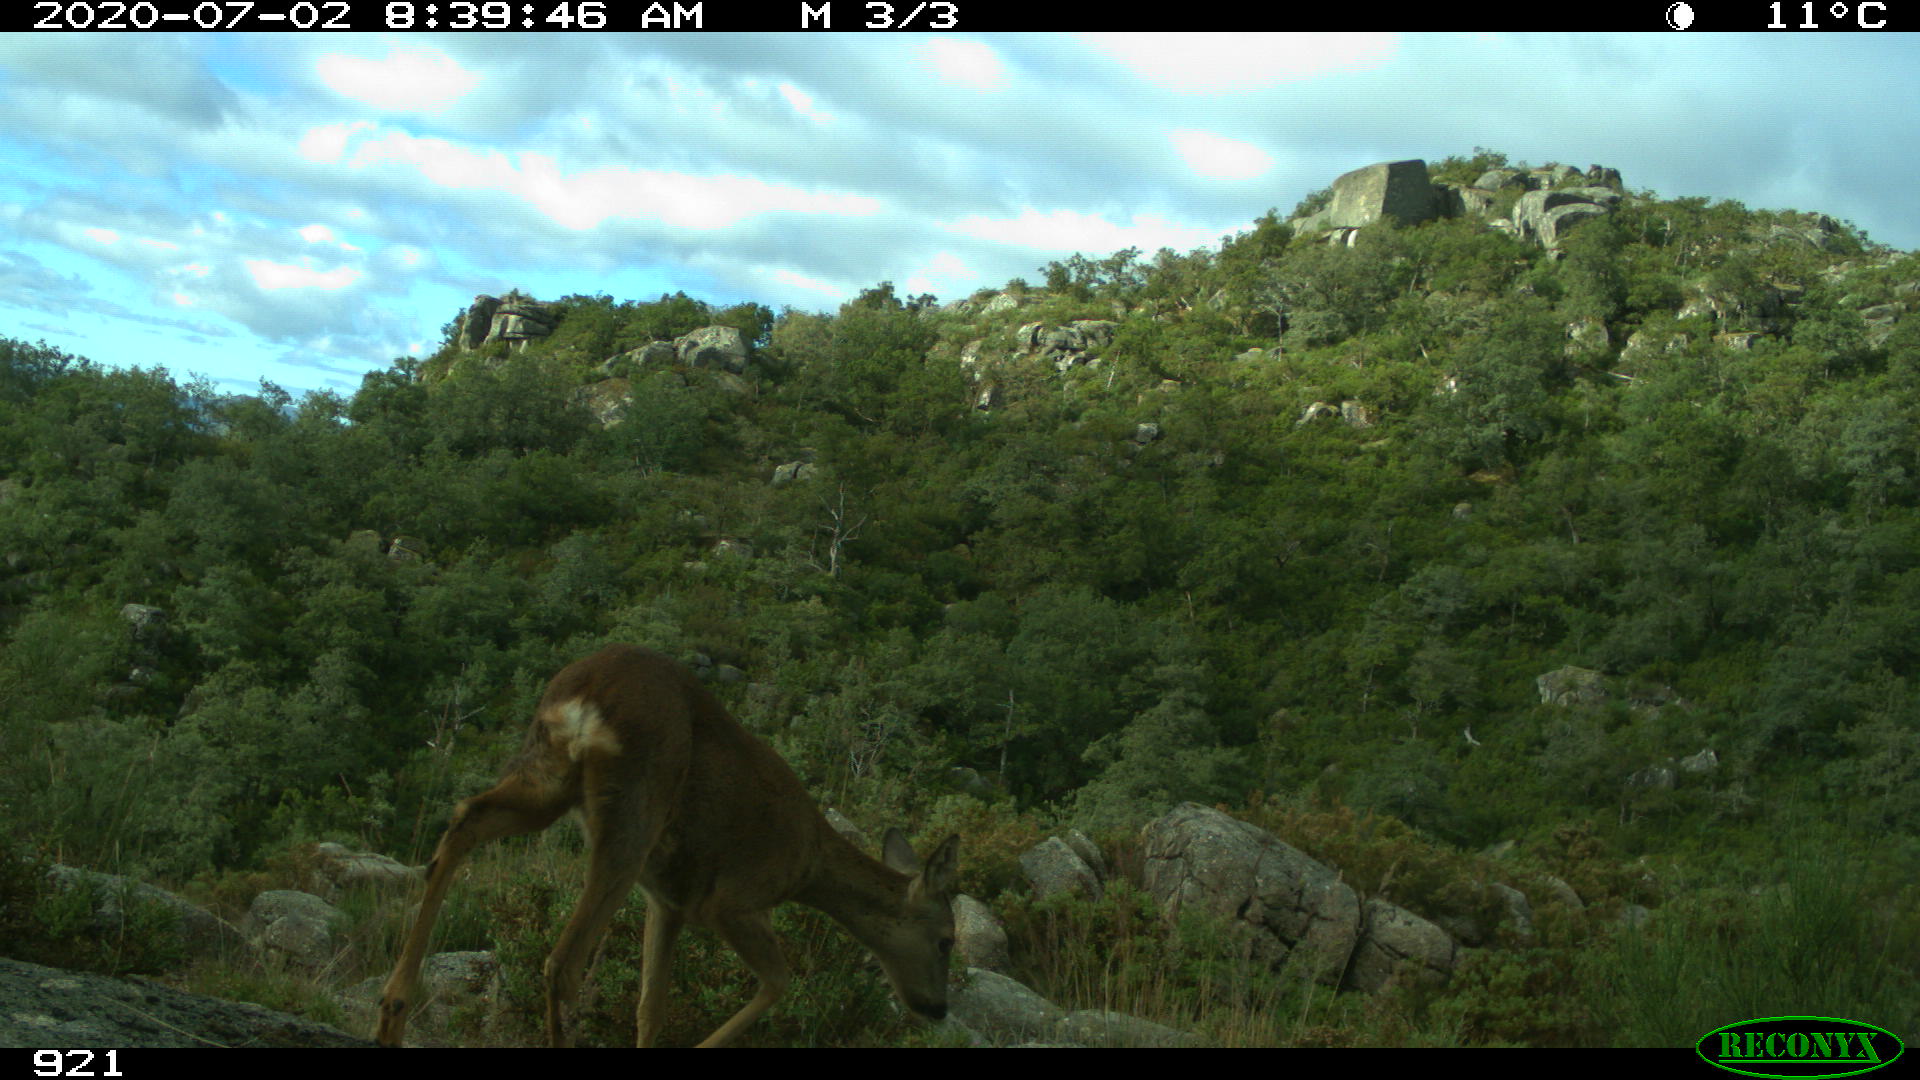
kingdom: Animalia
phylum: Chordata
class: Mammalia
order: Artiodactyla
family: Cervidae
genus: Capreolus
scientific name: Capreolus capreolus
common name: Western roe deer
